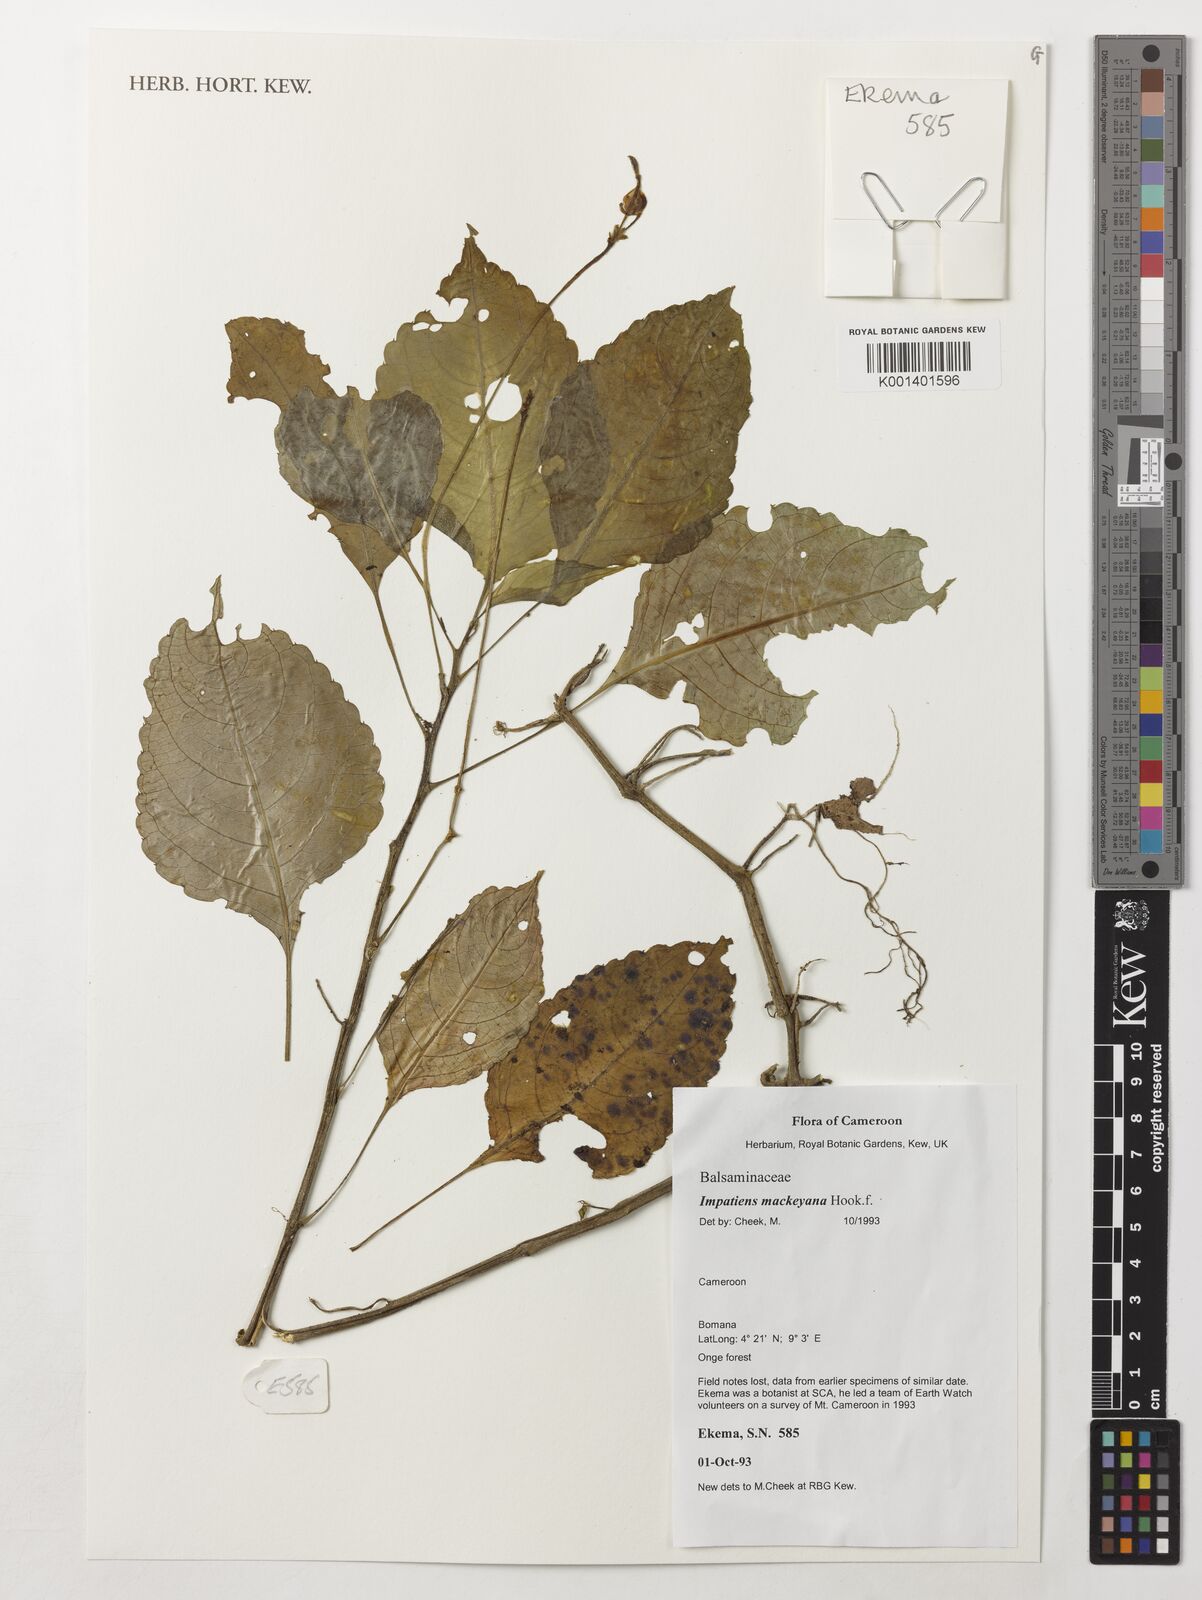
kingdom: Plantae
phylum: Tracheophyta
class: Magnoliopsida
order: Ericales
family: Balsaminaceae
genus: Impatiens
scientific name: Impatiens mackeyana
